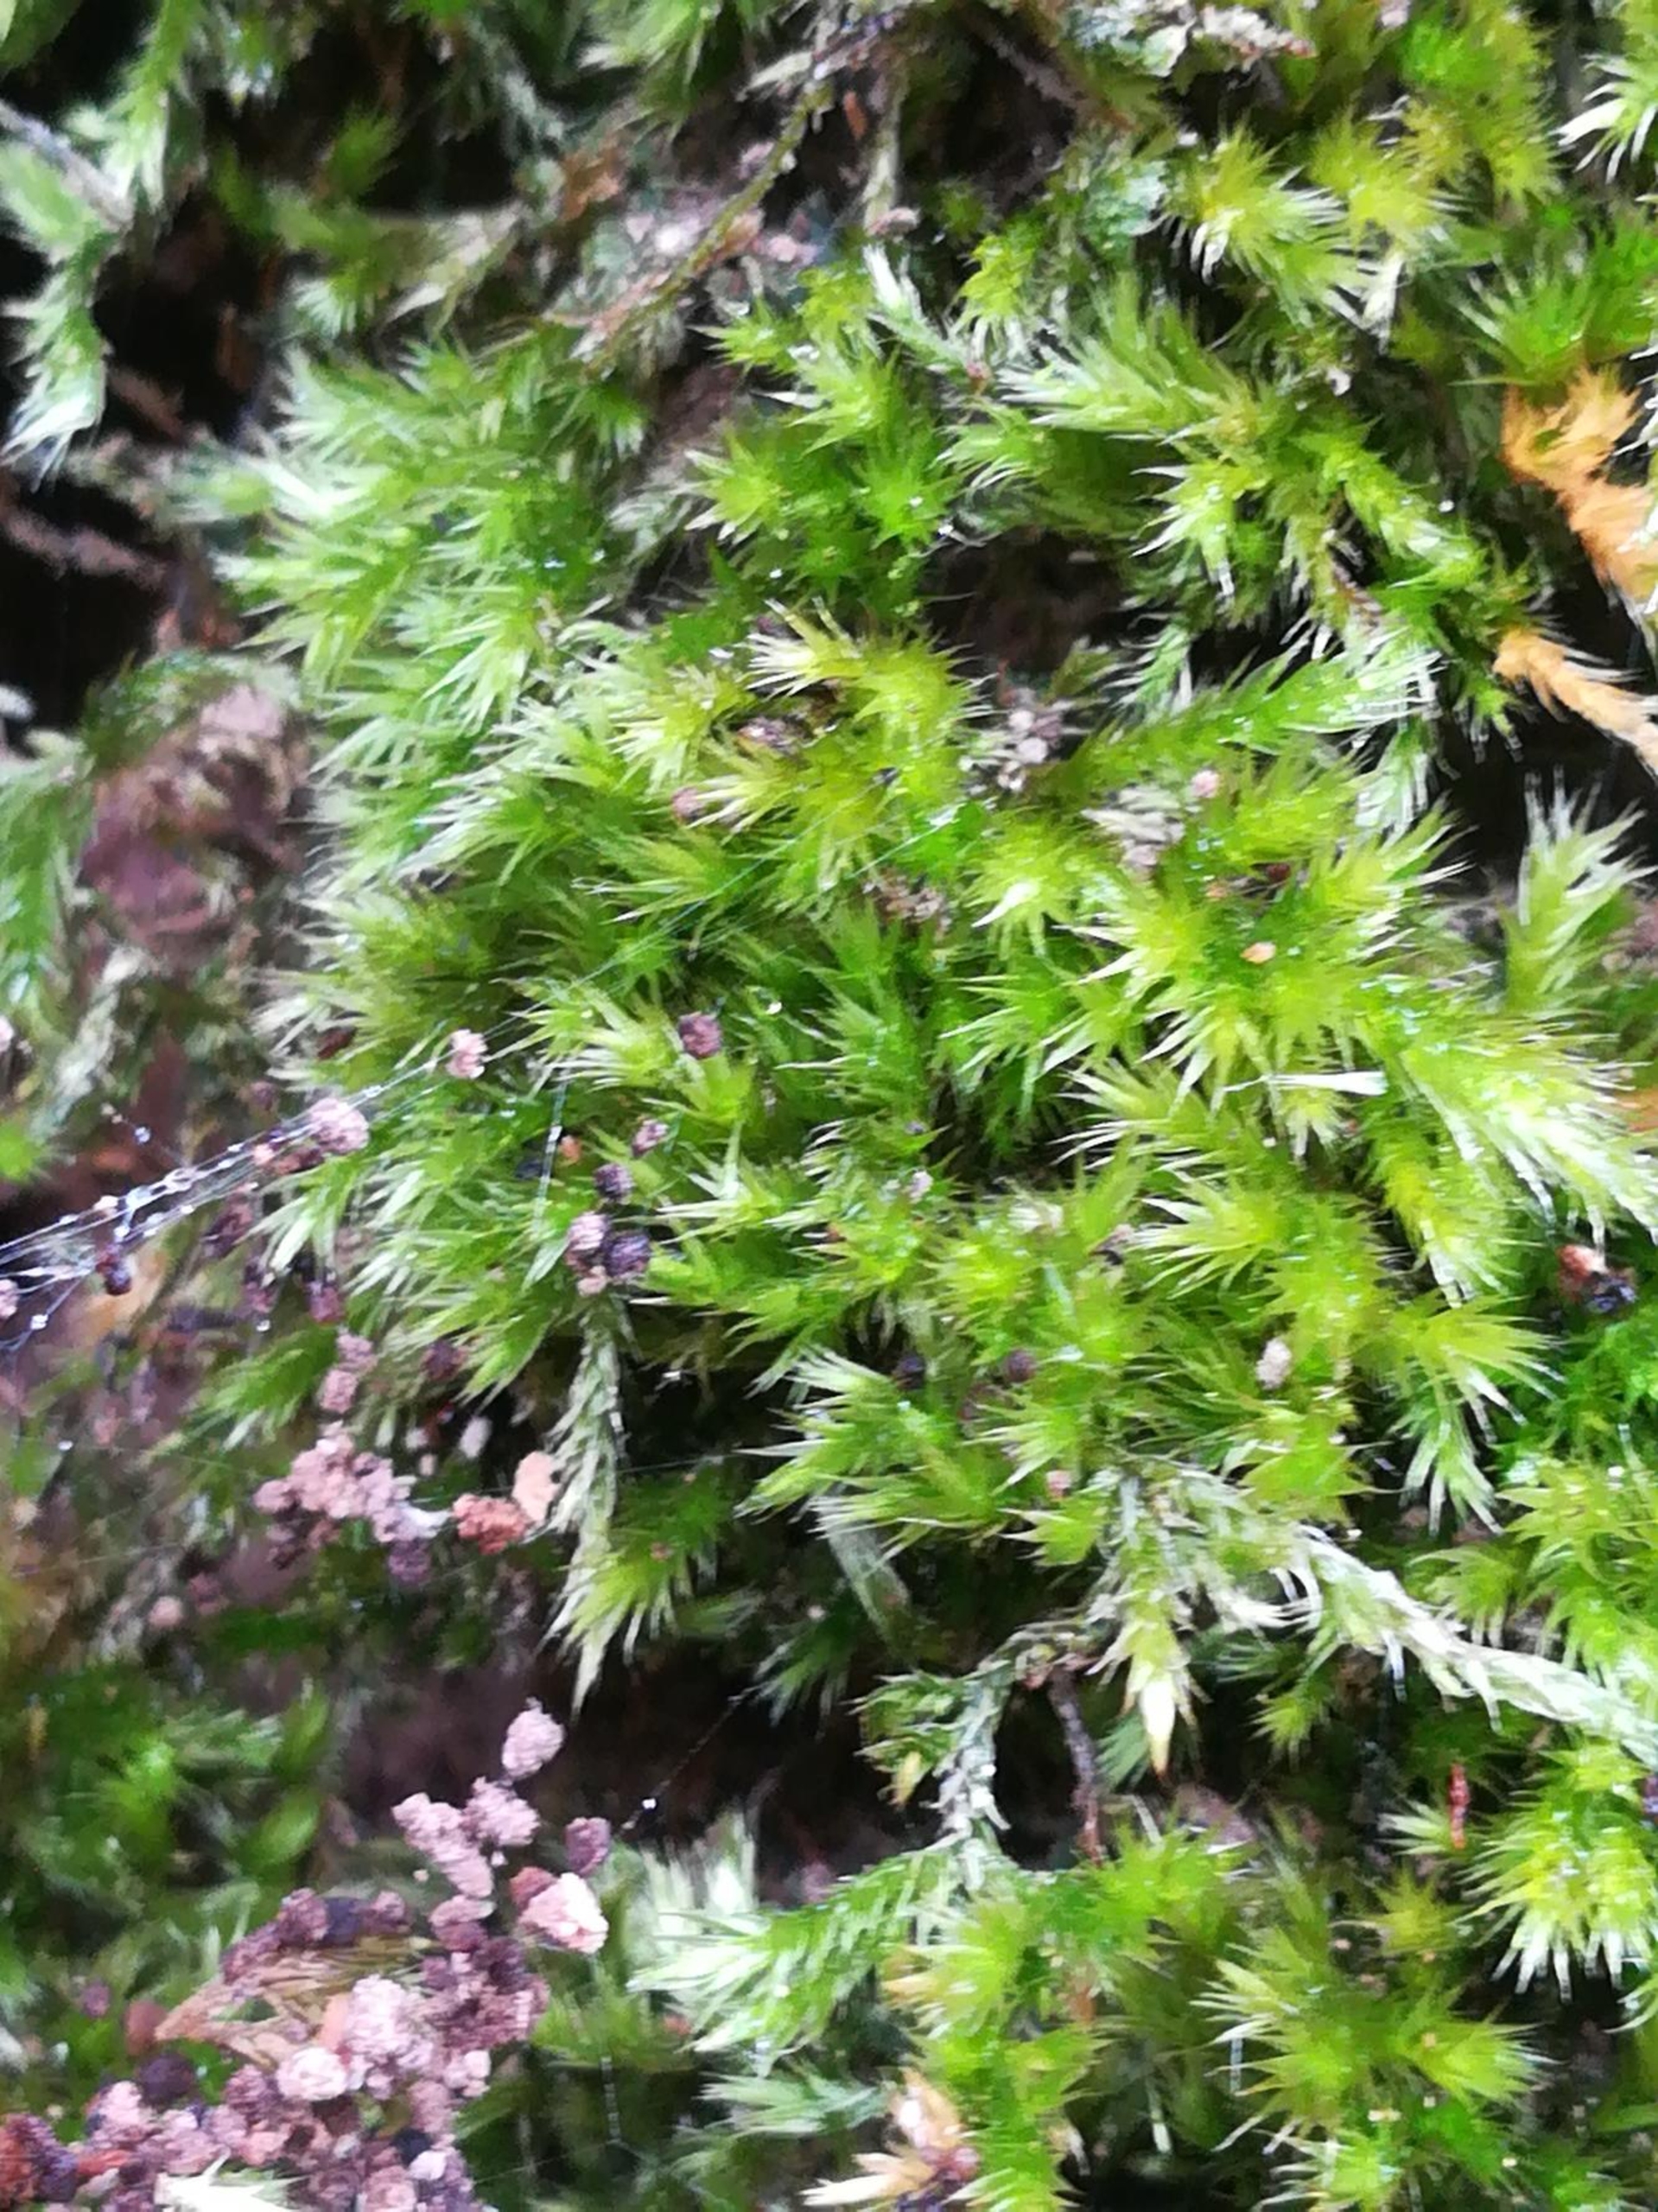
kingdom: Plantae
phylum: Bryophyta
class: Bryopsida
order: Hypnales
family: Brachytheciaceae
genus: Homalothecium
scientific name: Homalothecium sericeum
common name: Krybende silkemos
